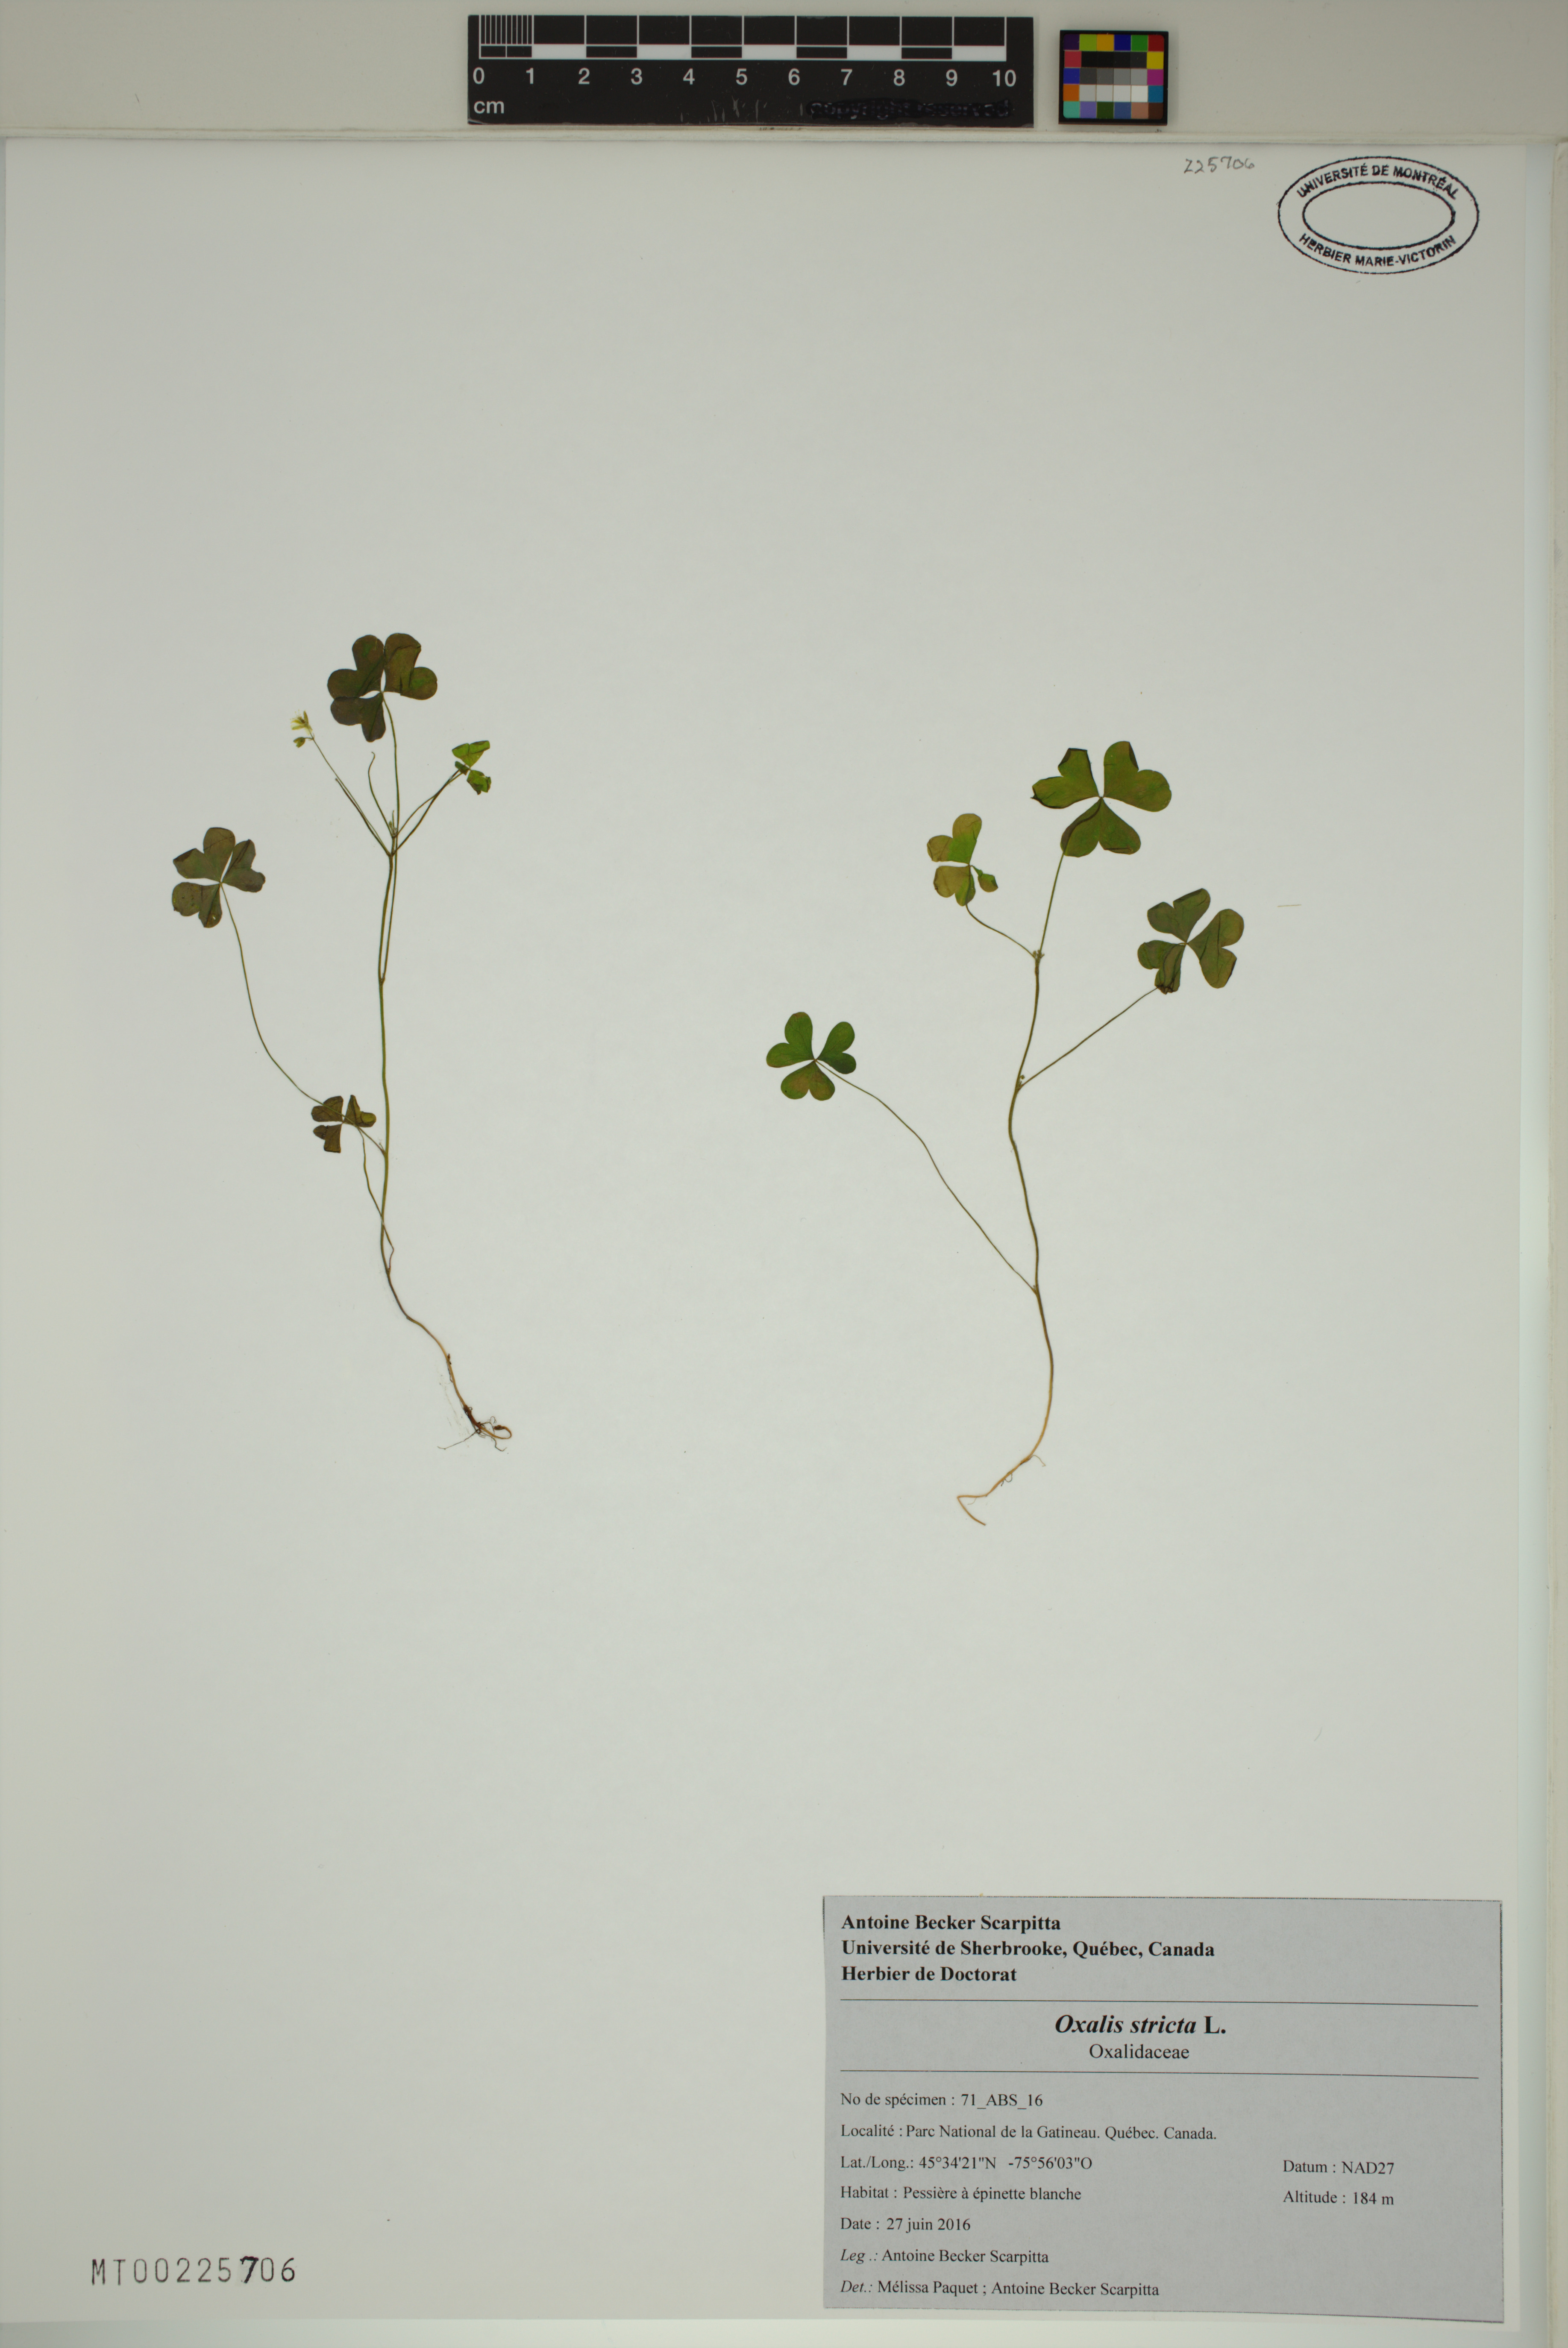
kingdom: Plantae
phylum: Tracheophyta
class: Magnoliopsida
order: Oxalidales
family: Oxalidaceae
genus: Oxalis
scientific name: Oxalis stricta
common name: Upright yellow-sorrel
